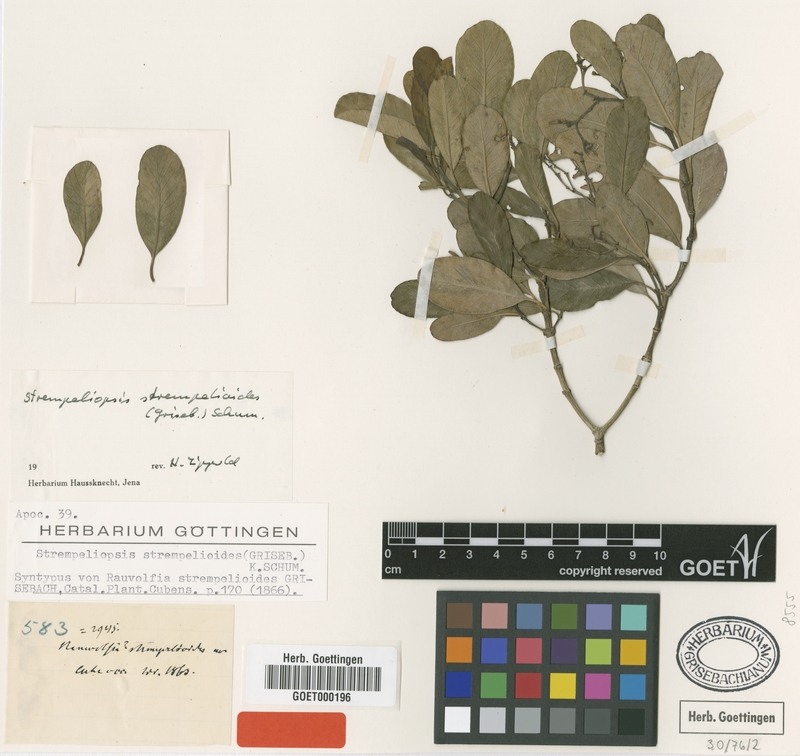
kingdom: Plantae
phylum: Tracheophyta
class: Magnoliopsida
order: Gentianales
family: Apocynaceae
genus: Strempeliopsis
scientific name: Strempeliopsis strempelioides
